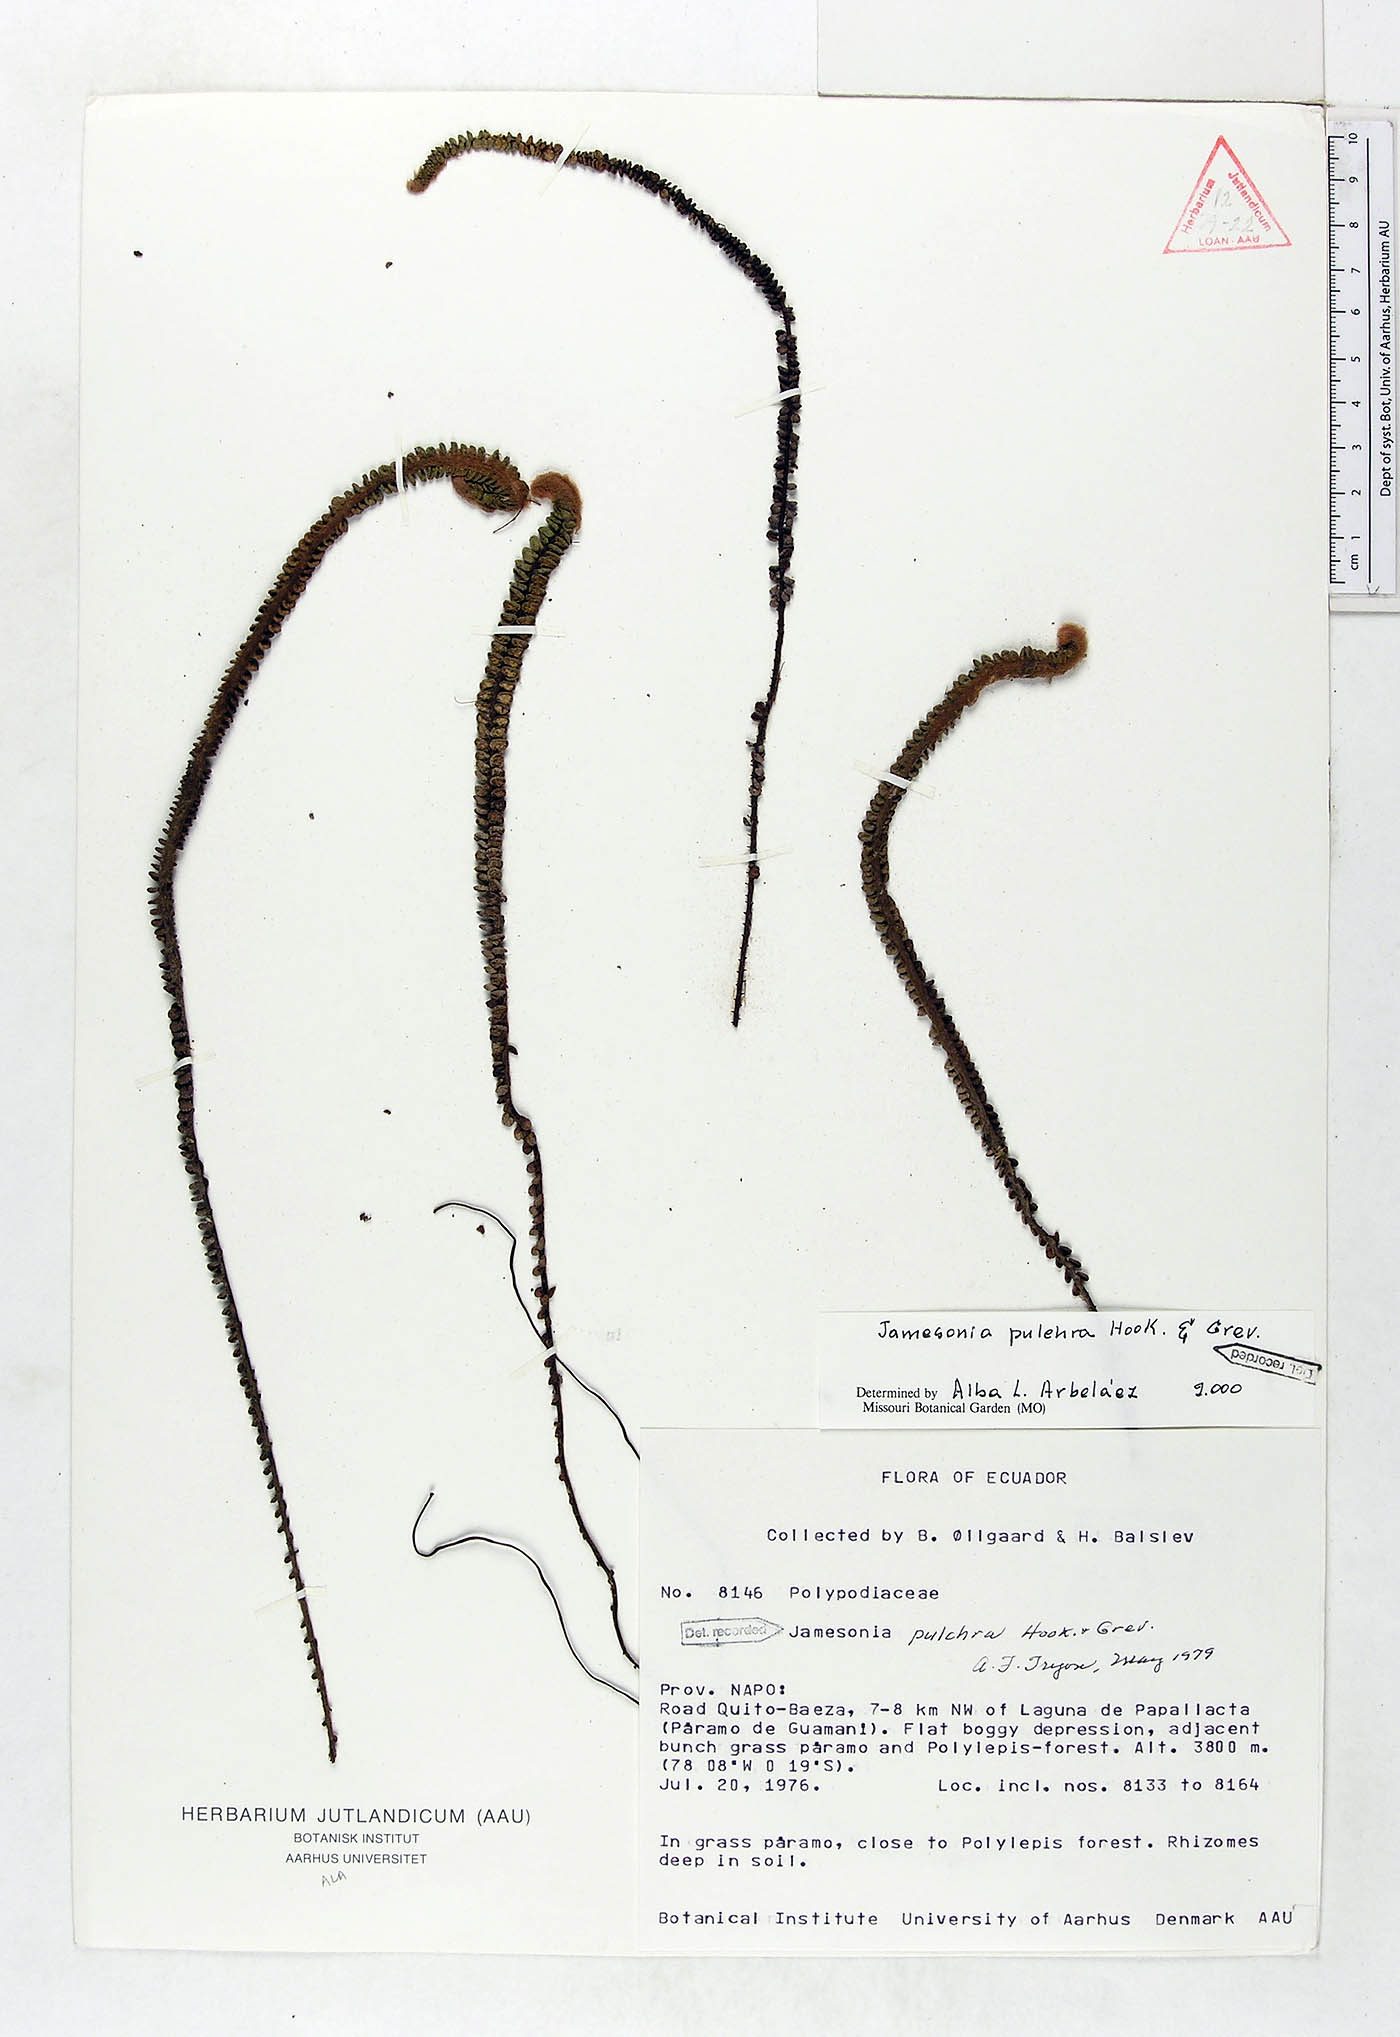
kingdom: Plantae
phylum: Tracheophyta
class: Polypodiopsida
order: Polypodiales
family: Pteridaceae
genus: Jamesonia
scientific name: Jamesonia pulchra
